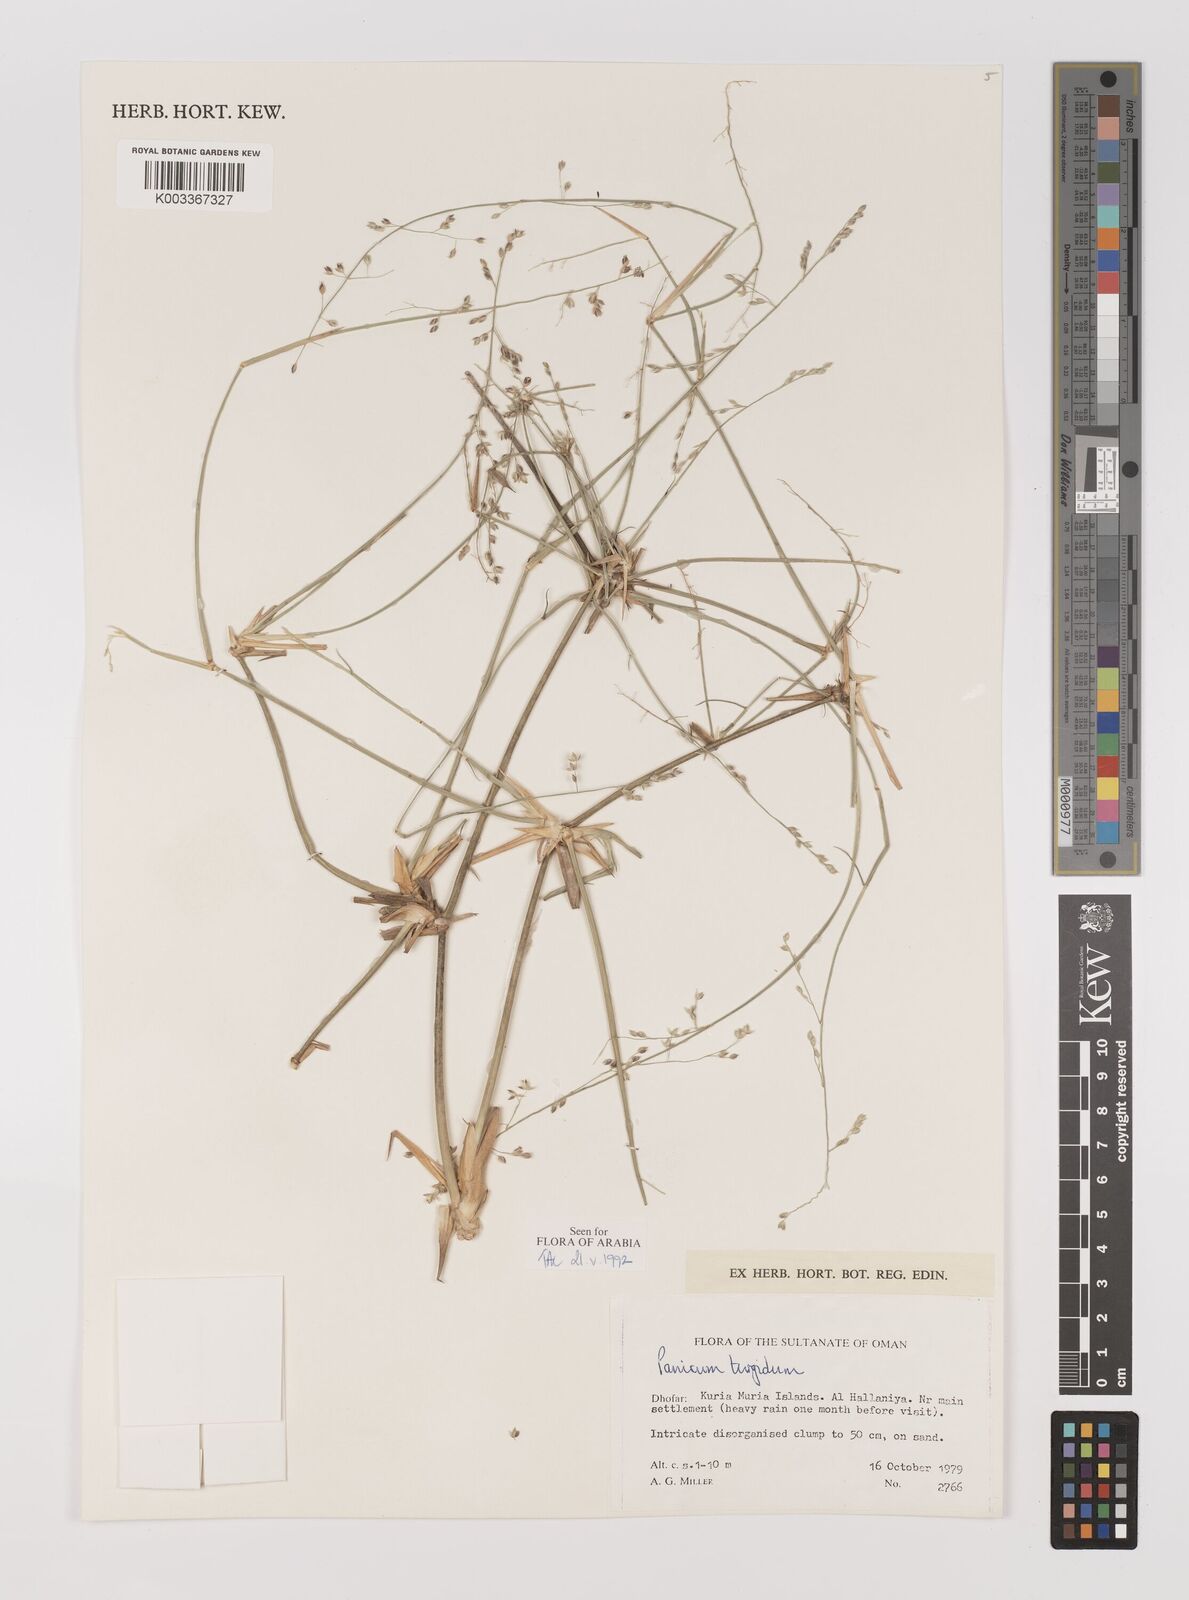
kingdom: Plantae
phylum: Tracheophyta
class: Liliopsida
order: Poales
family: Poaceae
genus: Panicum
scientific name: Panicum turgidum
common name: Desert grass
